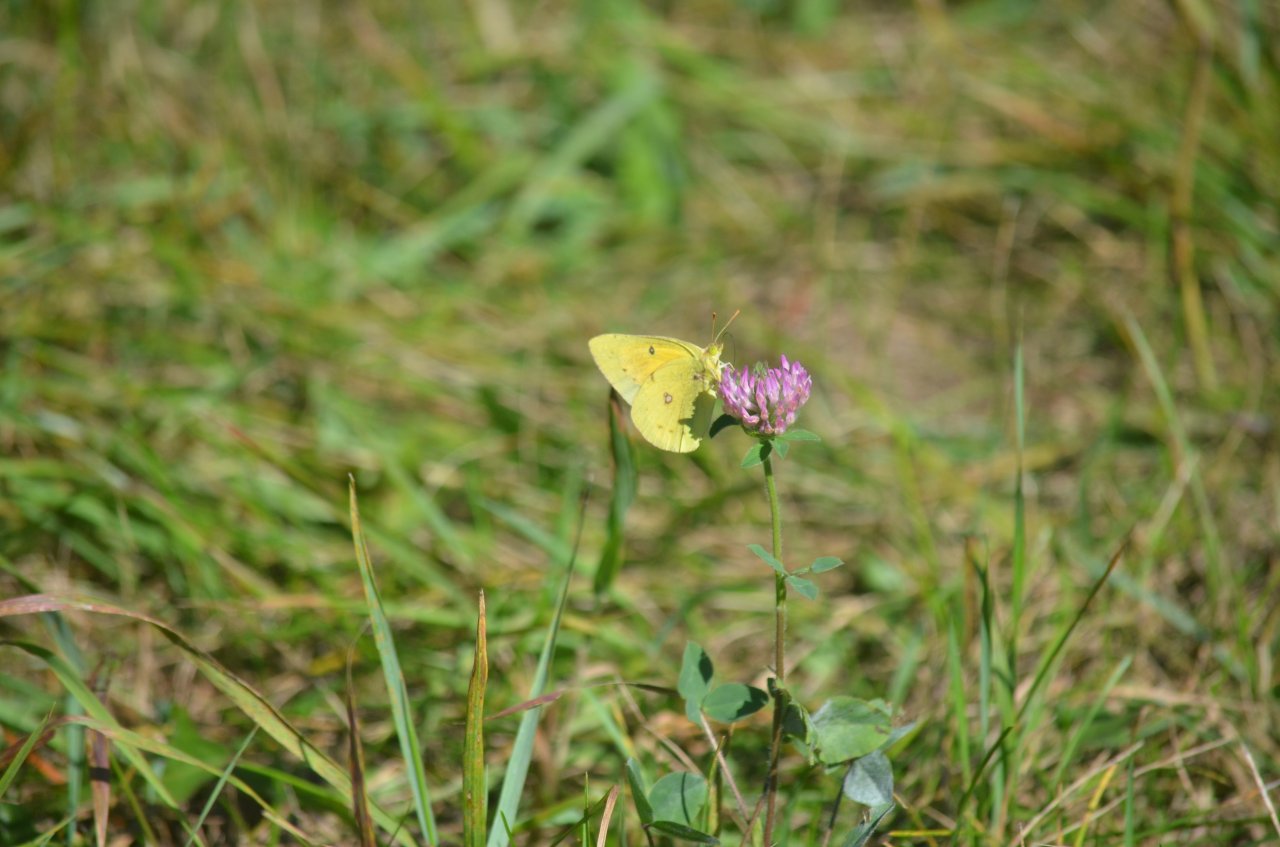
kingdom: Animalia
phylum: Arthropoda
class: Insecta
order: Lepidoptera
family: Pieridae
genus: Colias
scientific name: Colias eurytheme
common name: Orange Sulphur
